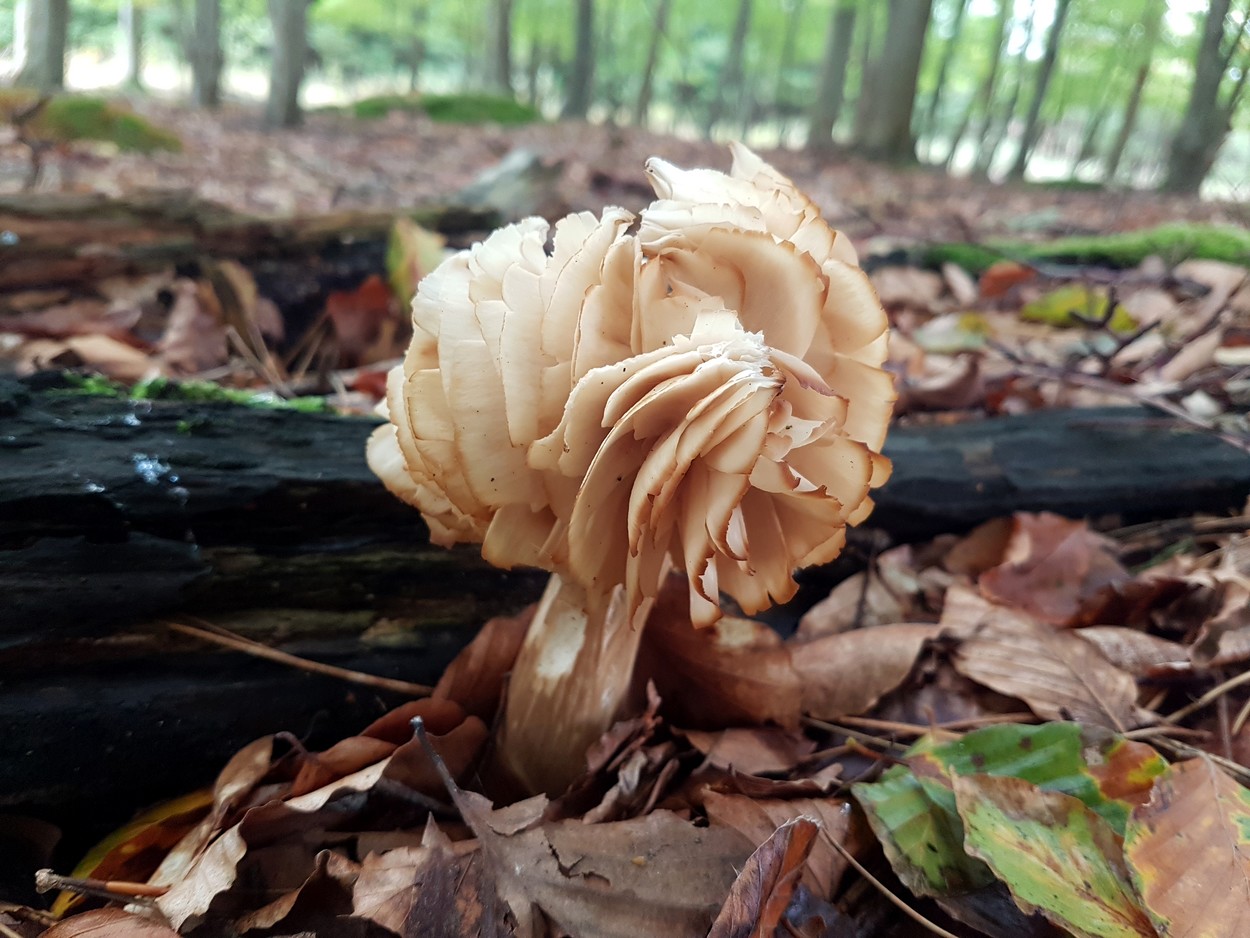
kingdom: Fungi
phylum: Basidiomycota
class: Agaricomycetes
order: Agaricales
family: Tricholomataceae
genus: Megacollybia
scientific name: Megacollybia platyphylla
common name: bredbladet væbnerhat
